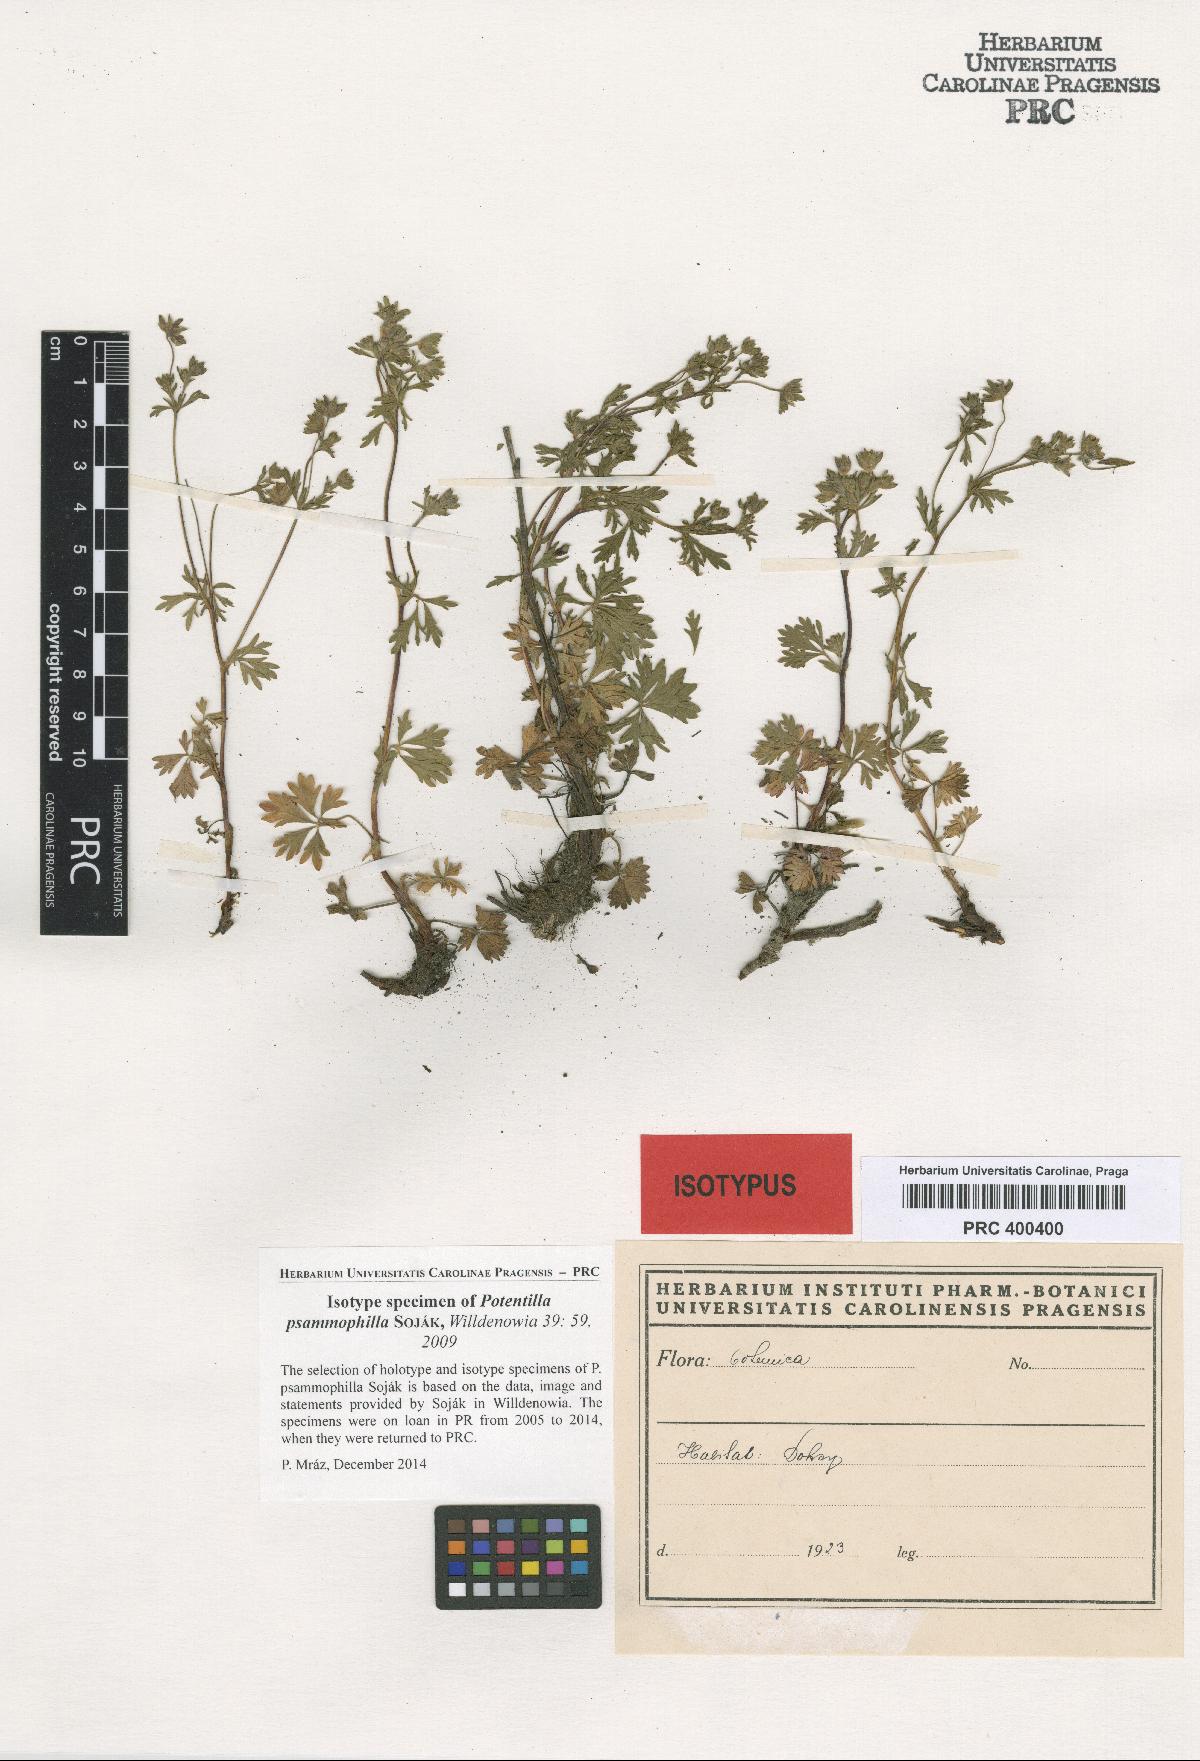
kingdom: Plantae
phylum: Tracheophyta
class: Magnoliopsida
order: Rosales
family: Rosaceae
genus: Potentilla
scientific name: Potentilla psammophila
